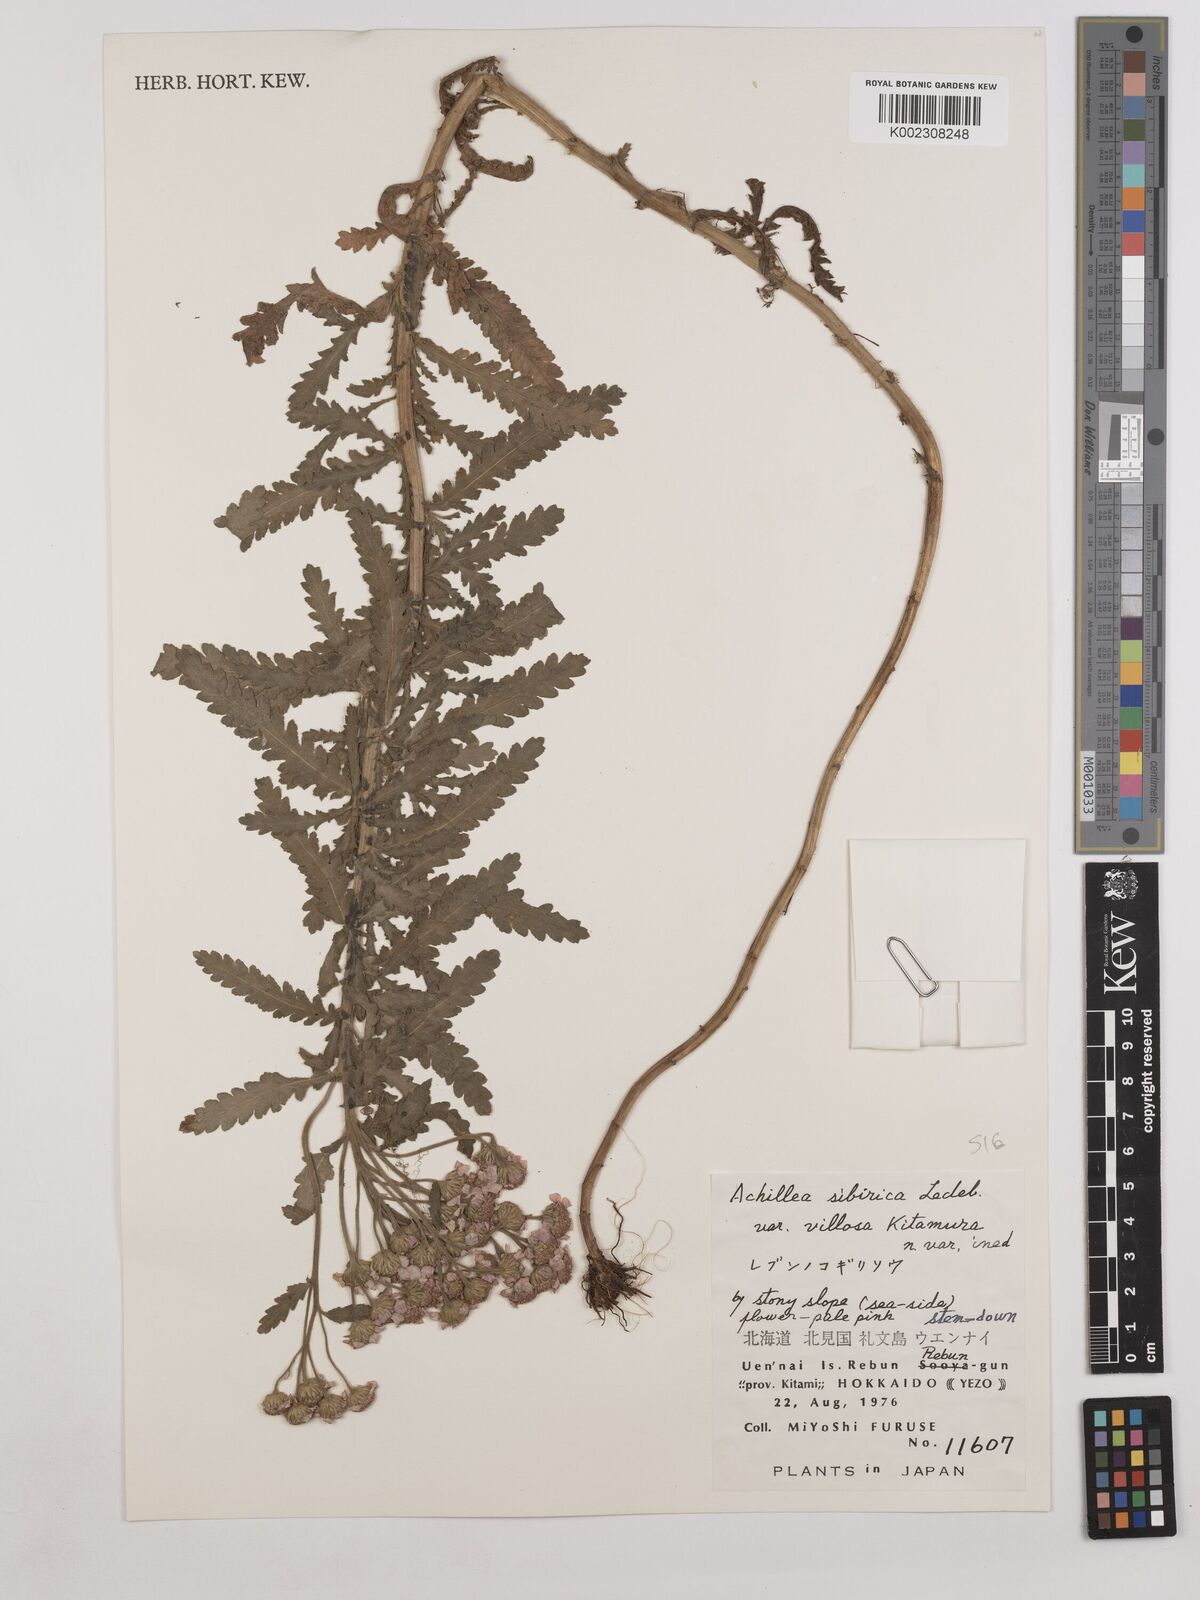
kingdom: Plantae
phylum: Tracheophyta
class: Magnoliopsida
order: Asterales
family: Asteraceae
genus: Achillea
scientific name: Achillea alpina
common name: Siberian yarrow
